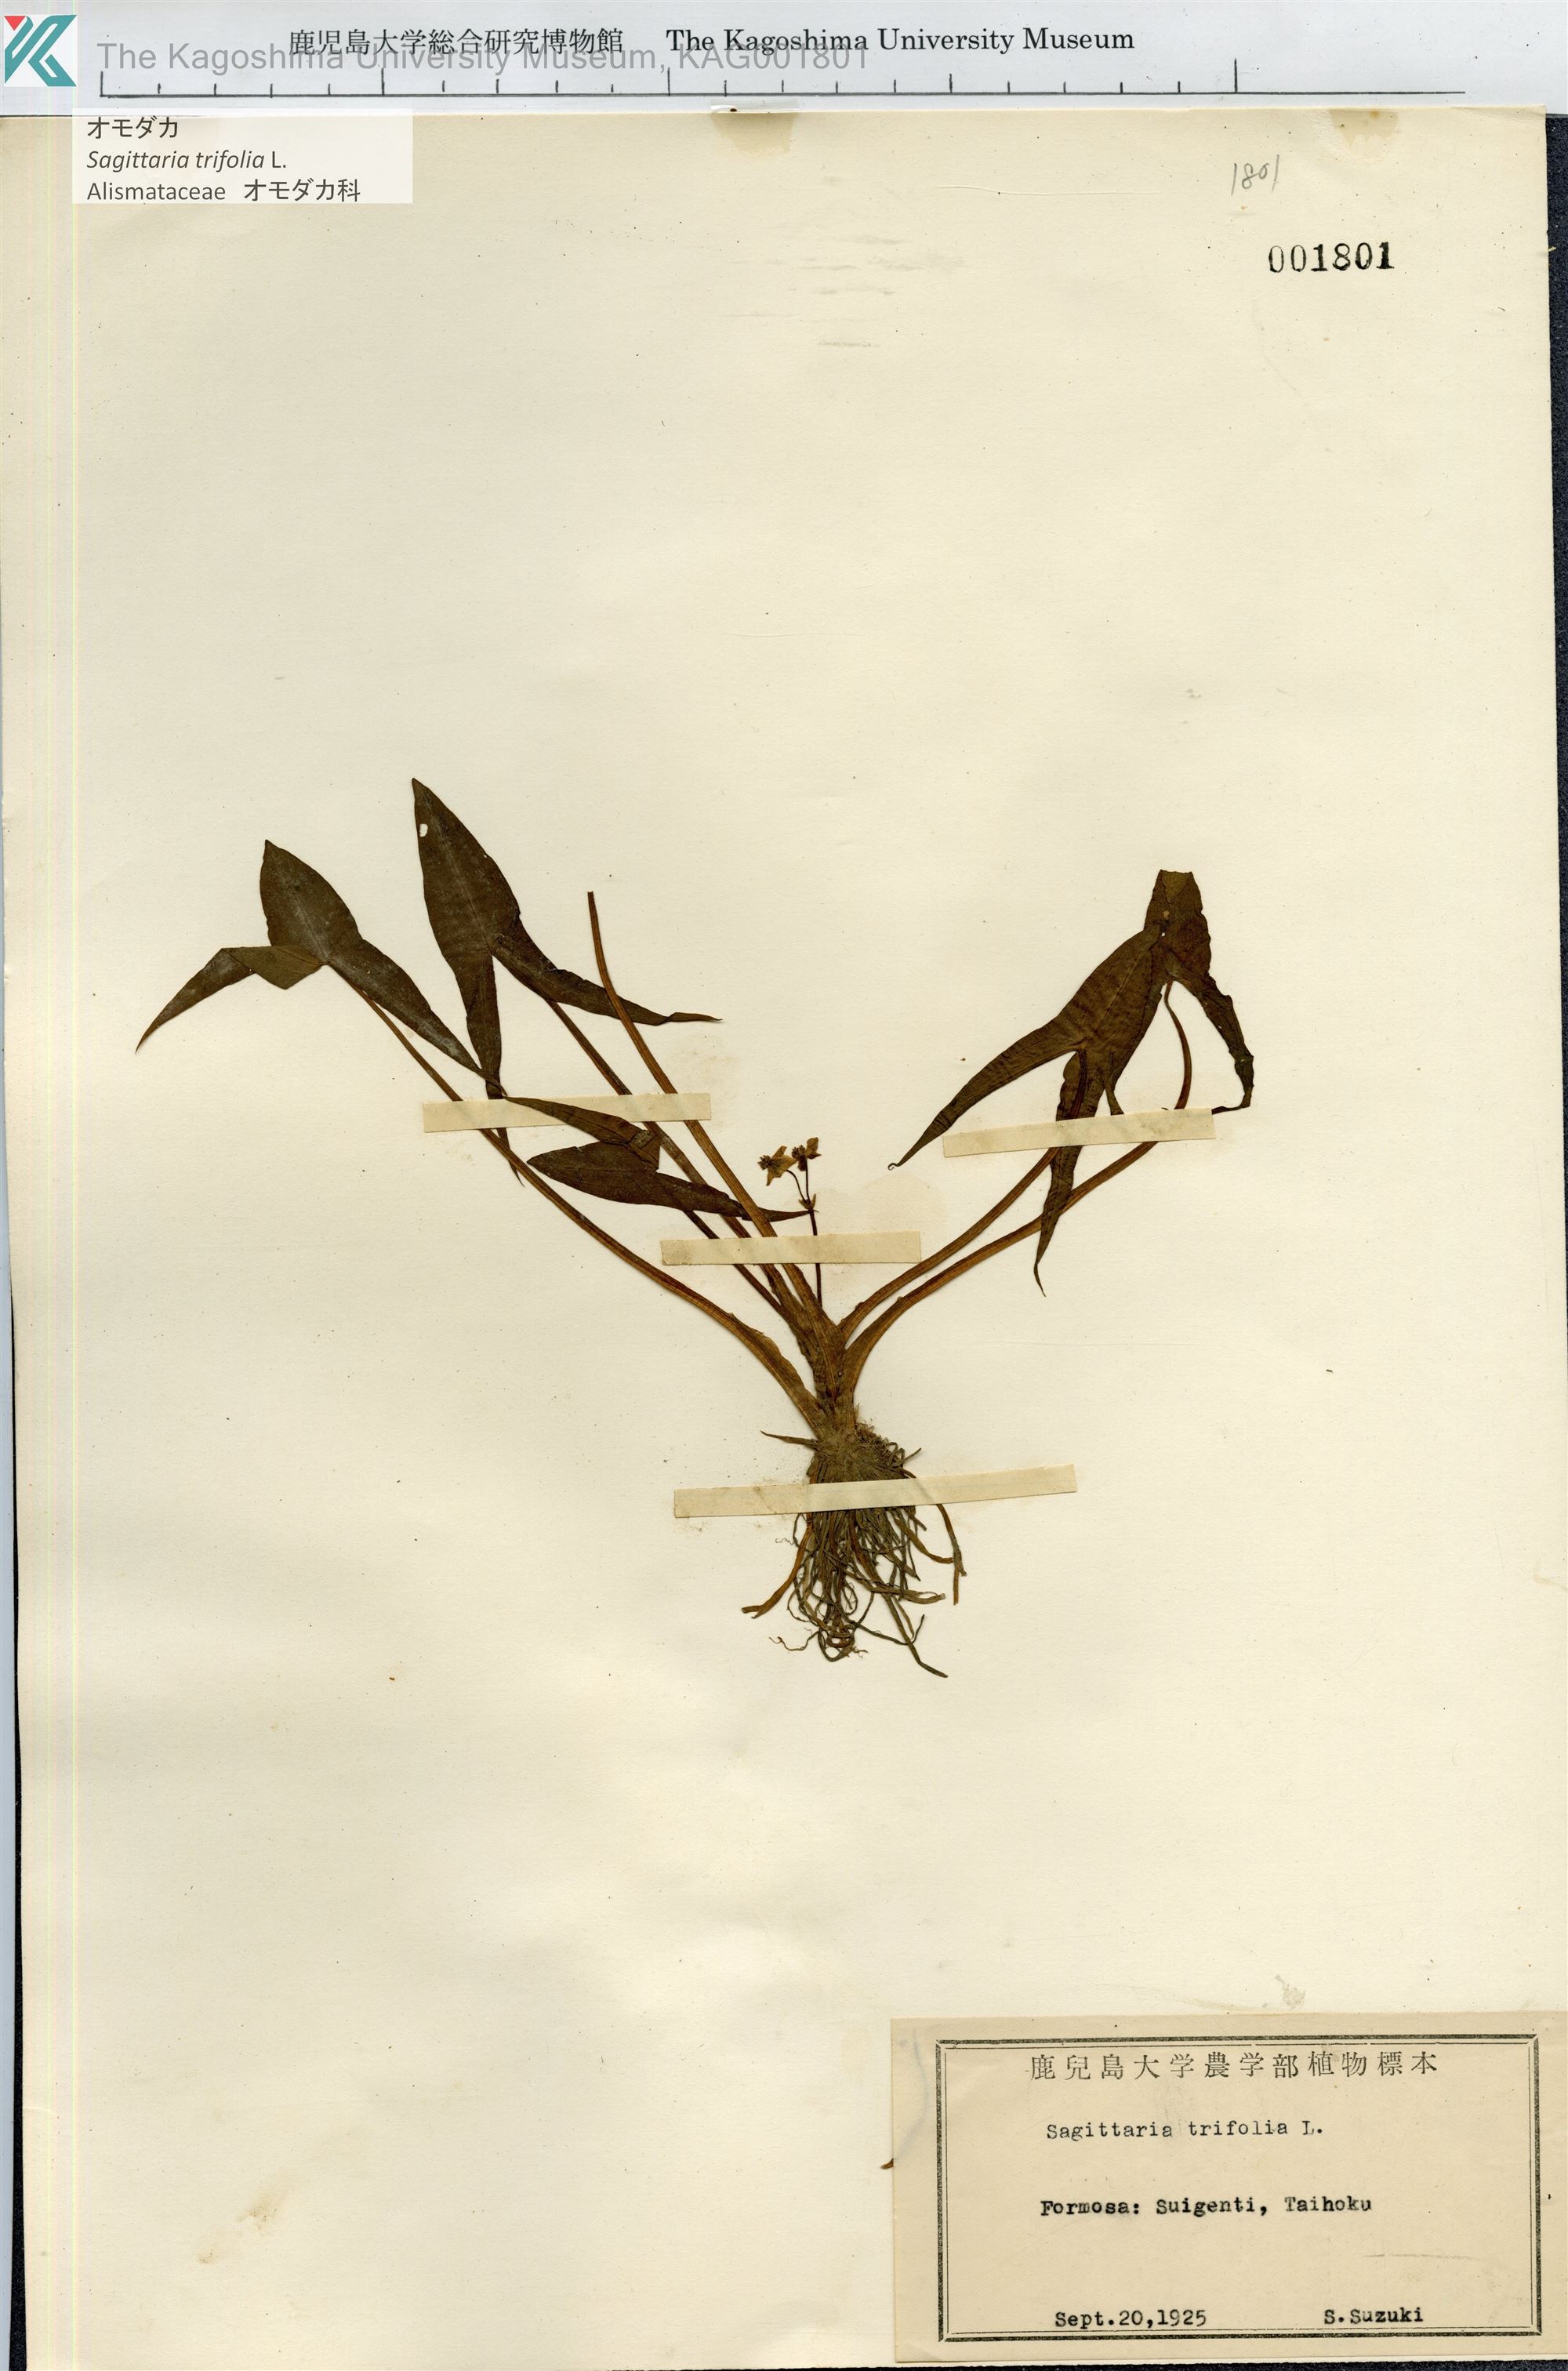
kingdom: Plantae
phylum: Tracheophyta
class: Liliopsida
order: Alismatales
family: Alismataceae
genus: Sagittaria
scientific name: Sagittaria trifolia
